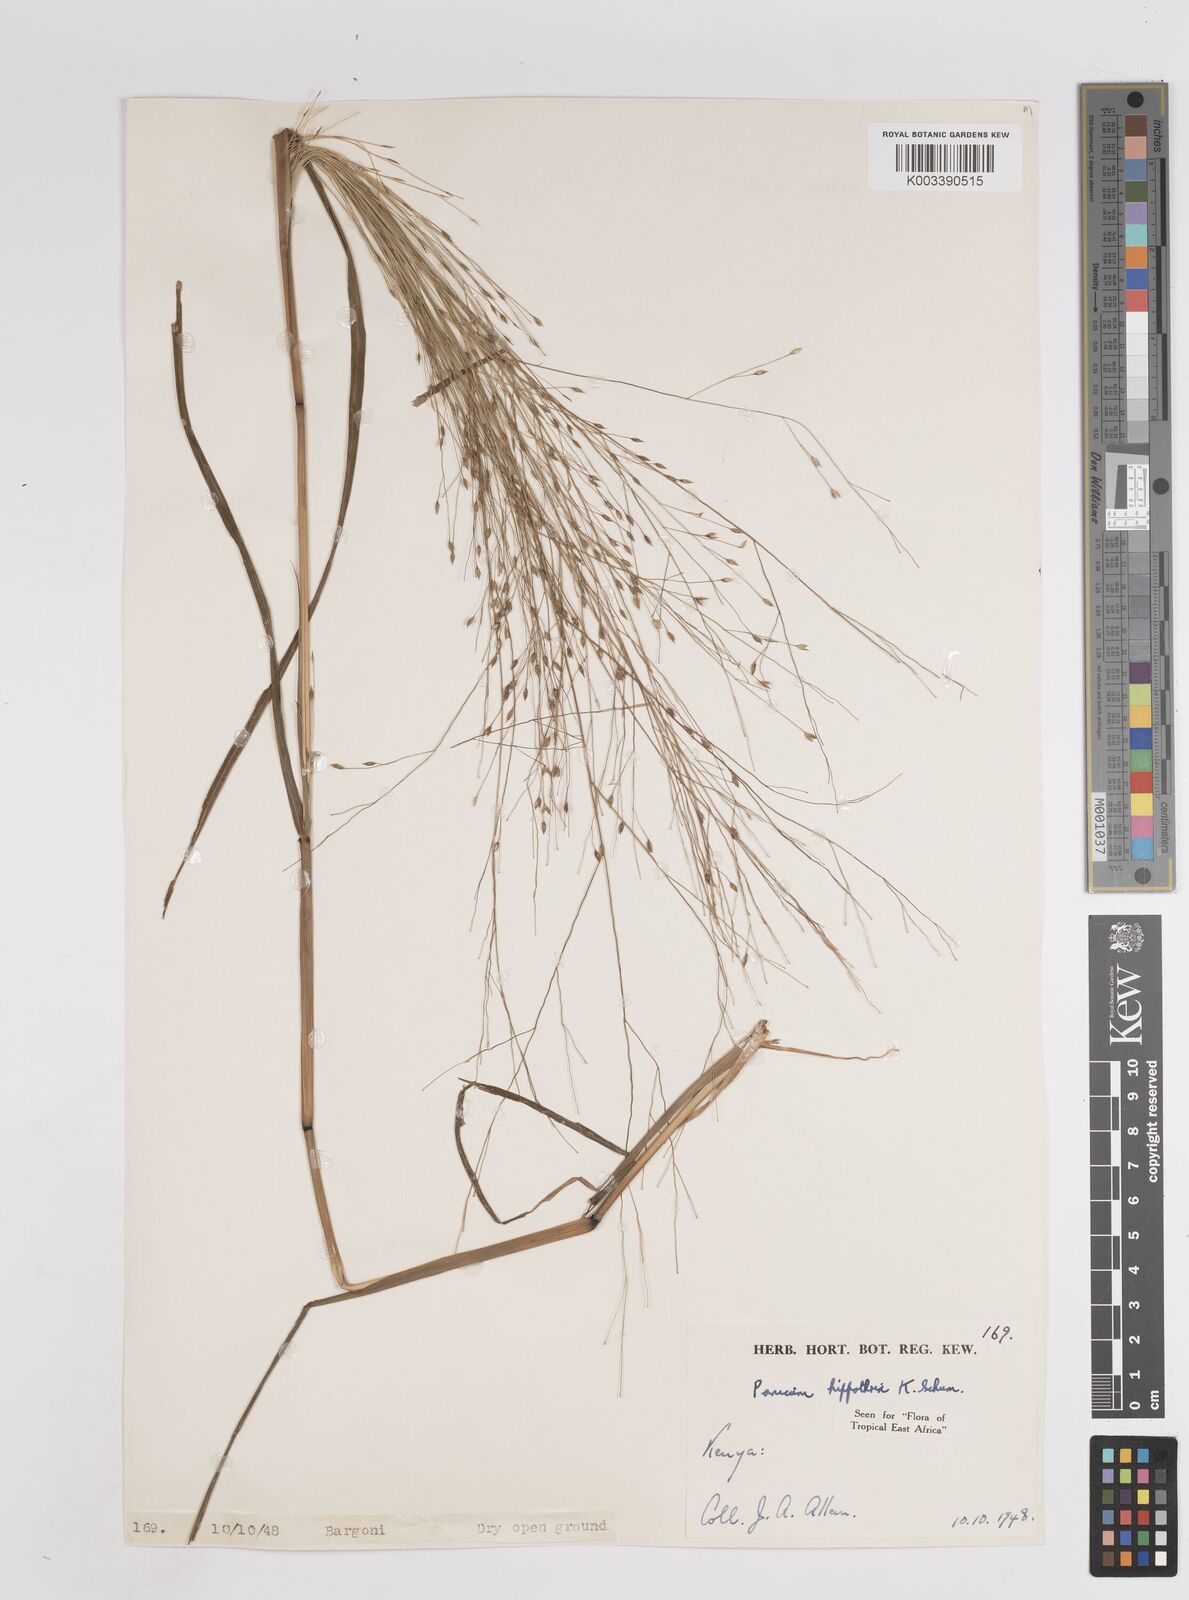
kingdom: Plantae
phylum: Tracheophyta
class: Liliopsida
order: Poales
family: Poaceae
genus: Panicum
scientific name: Panicum hippothrix
